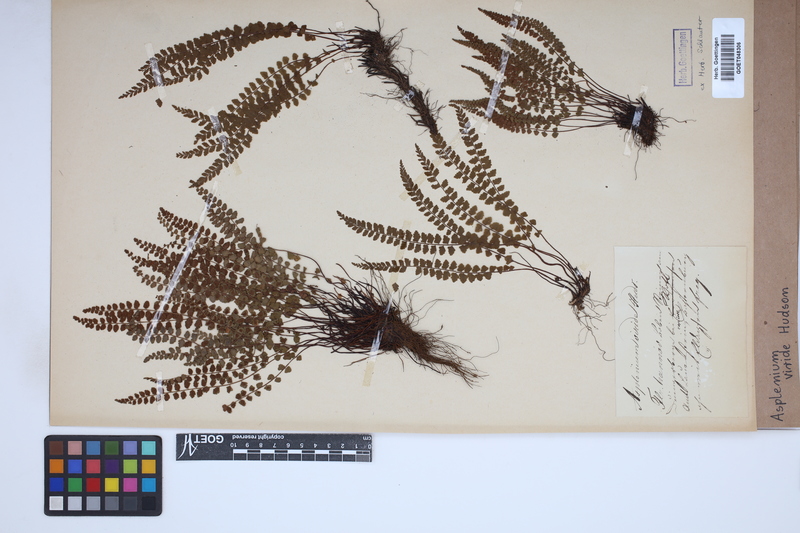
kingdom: Plantae
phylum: Tracheophyta
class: Polypodiopsida
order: Polypodiales
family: Aspleniaceae
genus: Asplenium
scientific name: Asplenium viride
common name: Green spleenwort
